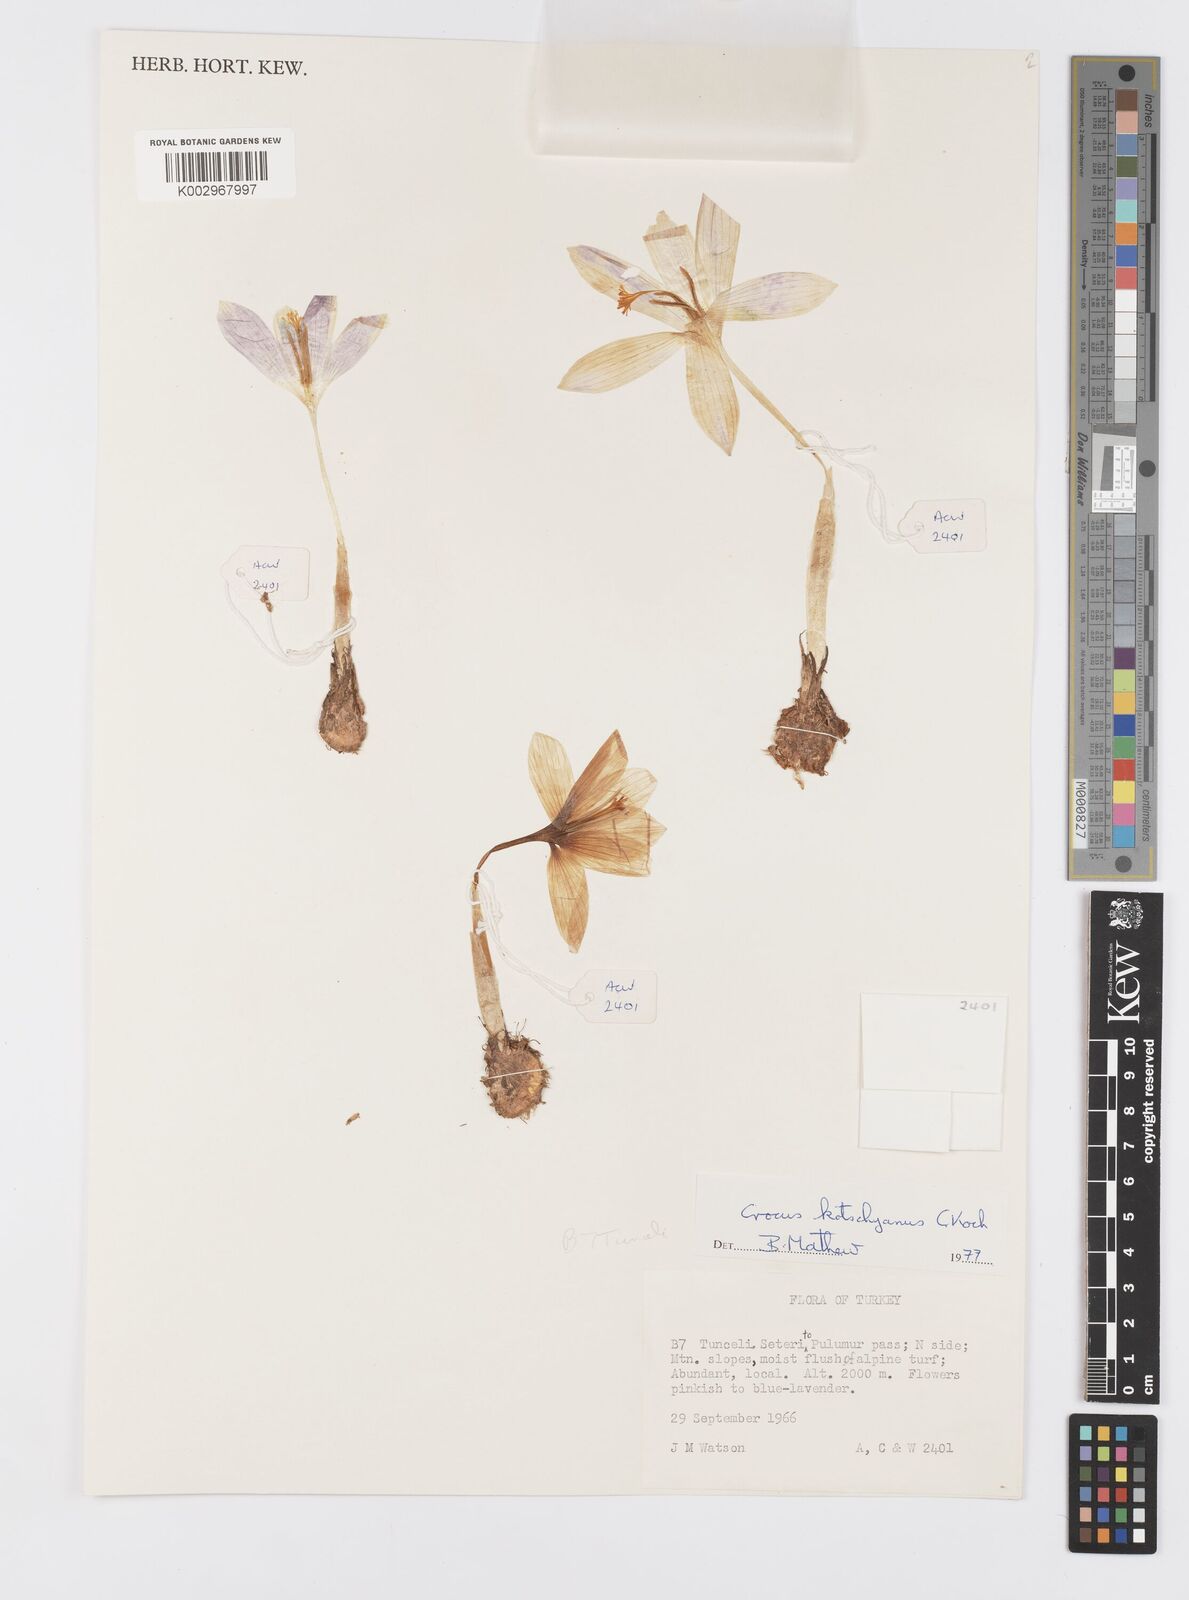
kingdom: Plantae
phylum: Tracheophyta
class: Liliopsida
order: Asparagales
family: Iridaceae
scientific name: Iridaceae
